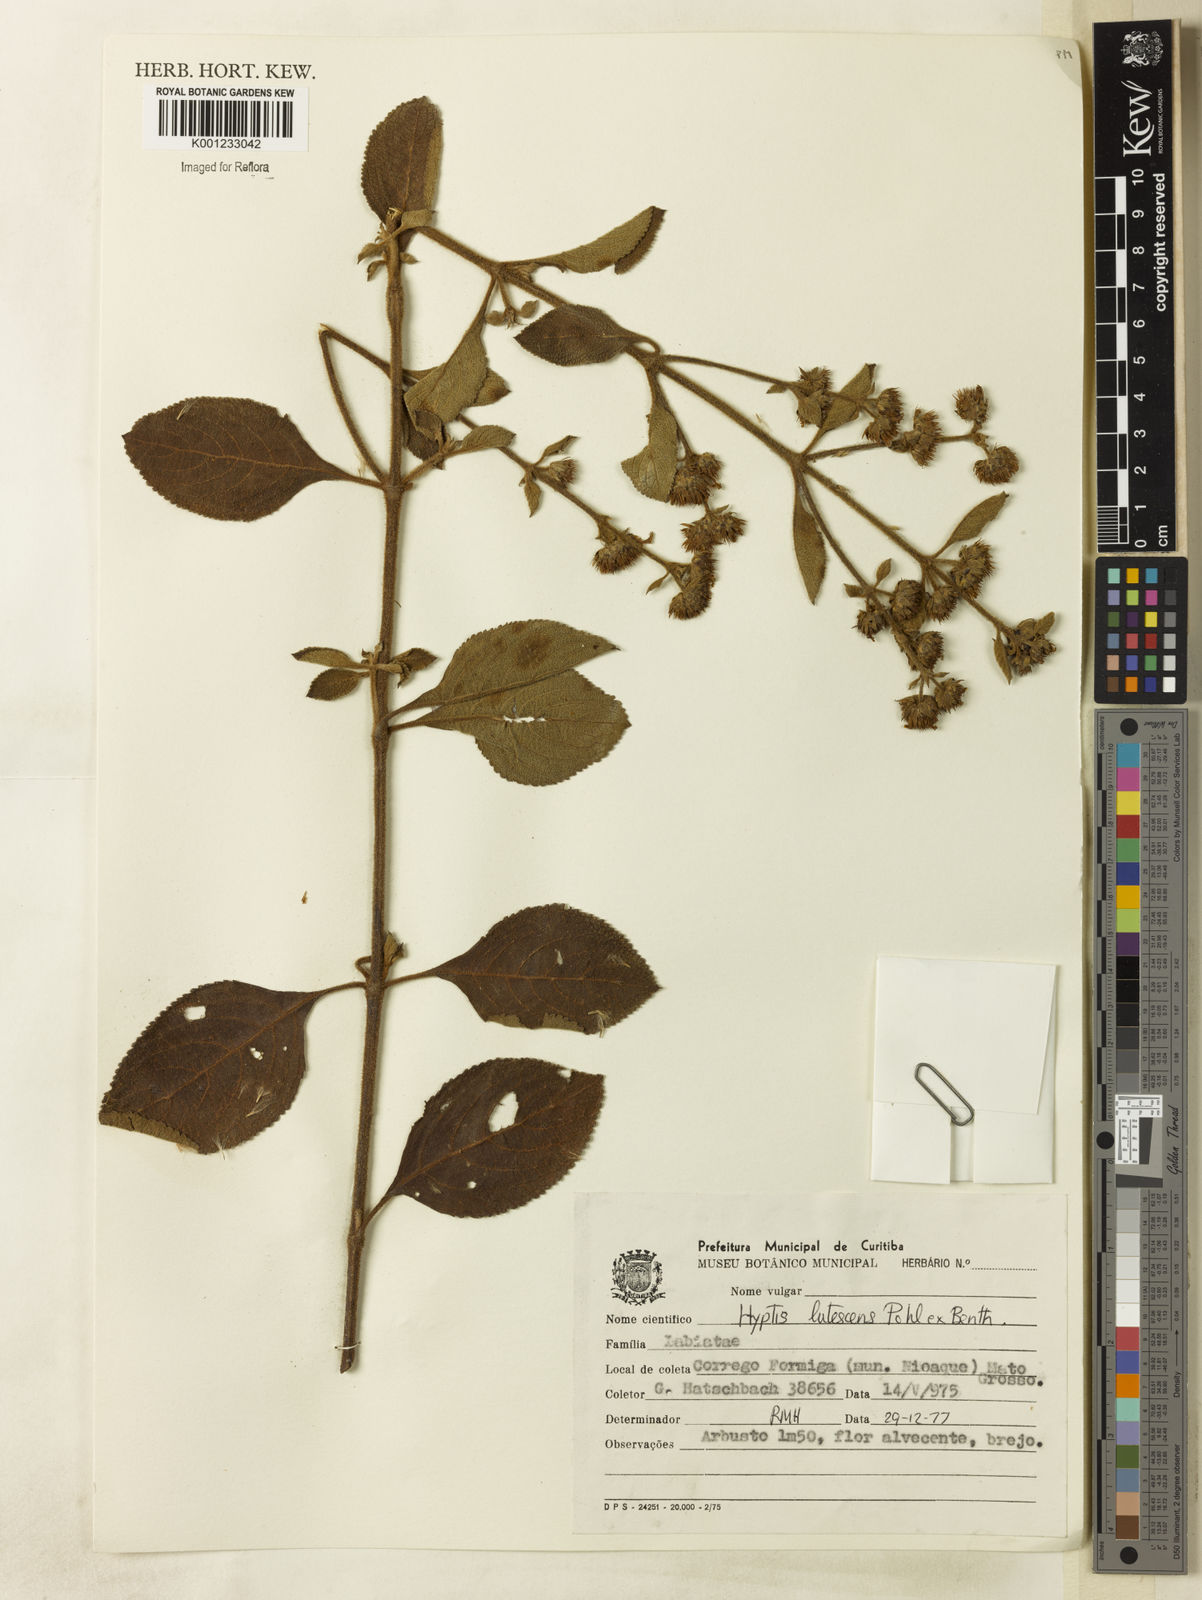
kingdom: Plantae
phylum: Tracheophyta
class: Magnoliopsida
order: Lamiales
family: Lamiaceae
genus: Hyptis
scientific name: Hyptis lutescens
